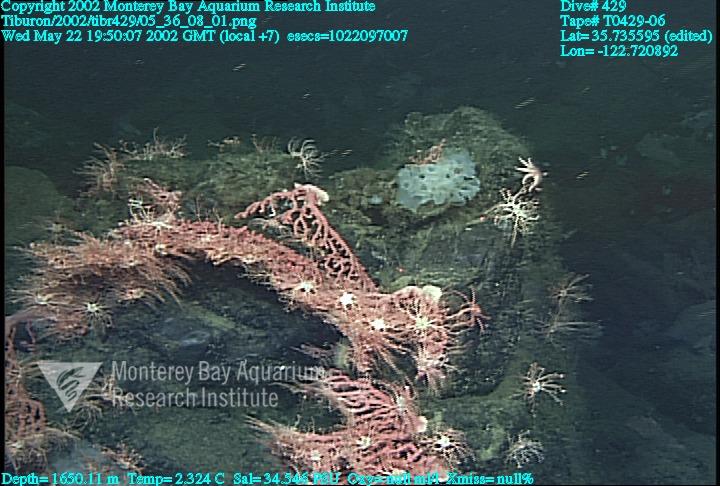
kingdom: Animalia
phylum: Porifera
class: Hexactinellida
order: Sceptrulophora
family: Farreidae
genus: Farrea
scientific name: Farrea occa
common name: Reversed glass sponge
